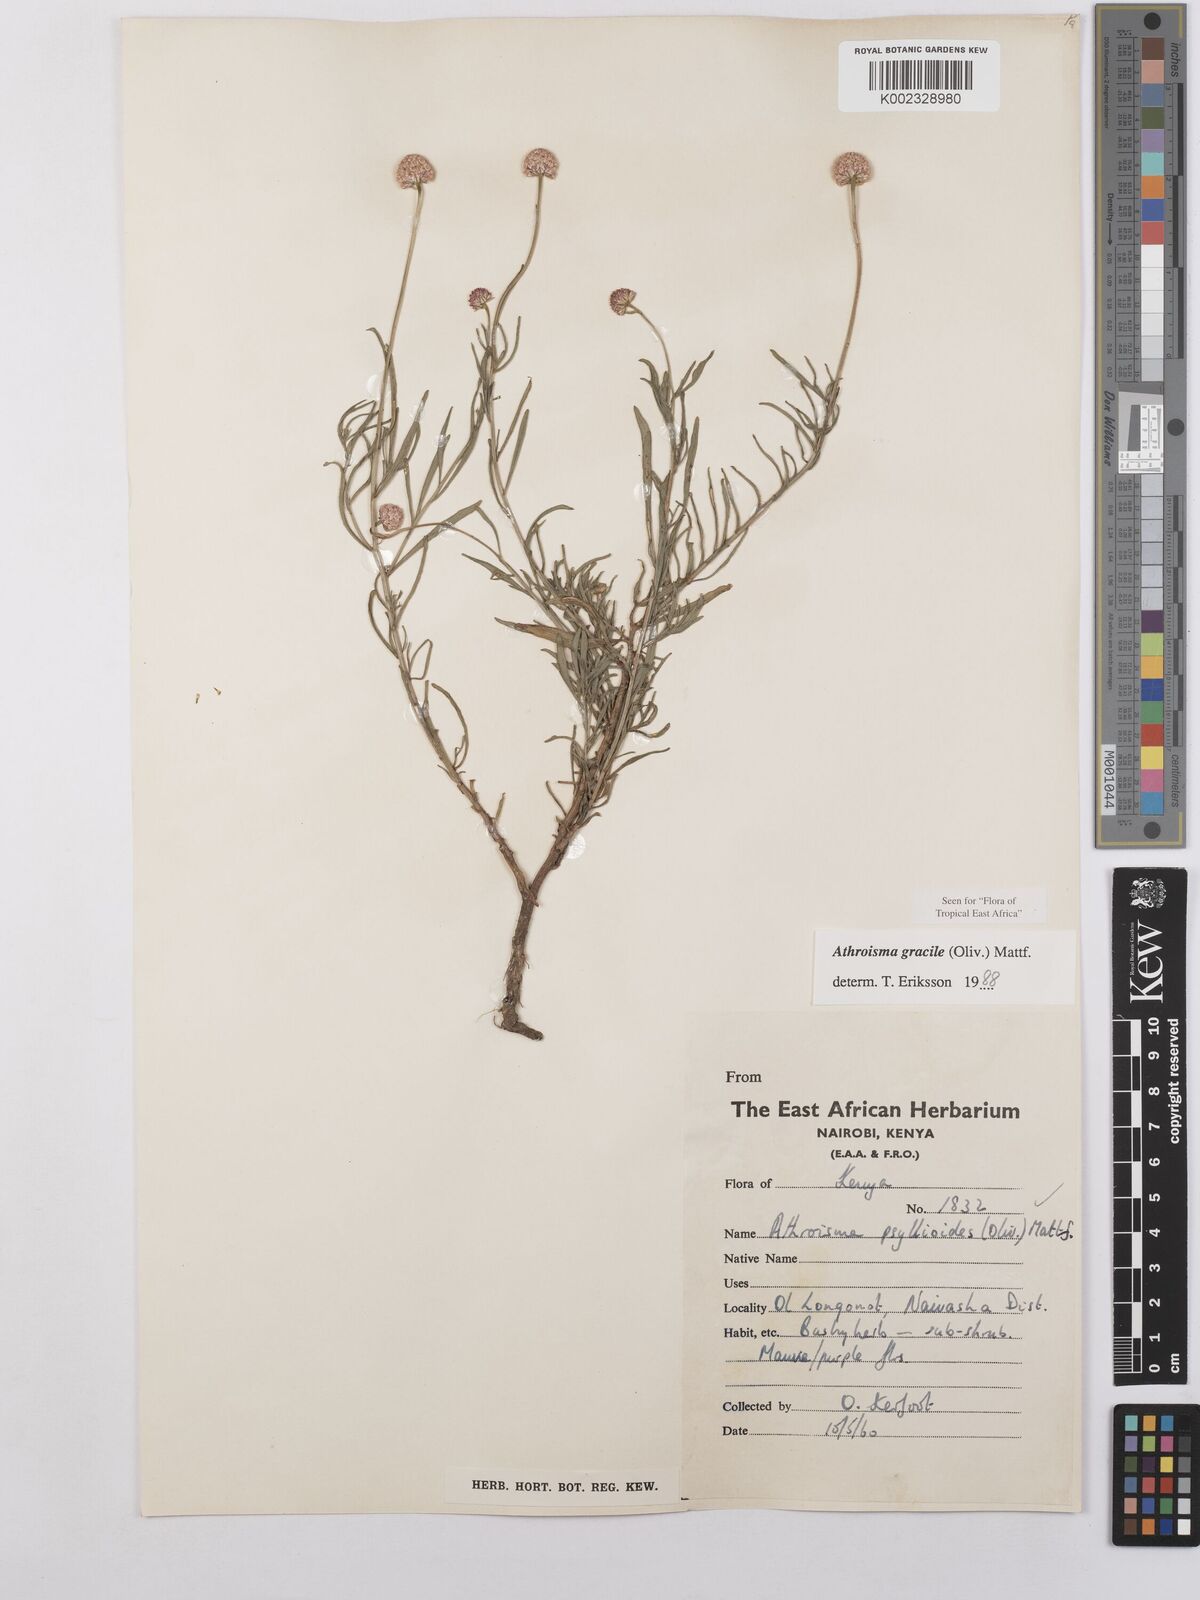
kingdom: Plantae
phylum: Tracheophyta
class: Magnoliopsida
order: Asterales
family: Asteraceae
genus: Athroisma
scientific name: Athroisma gracile
